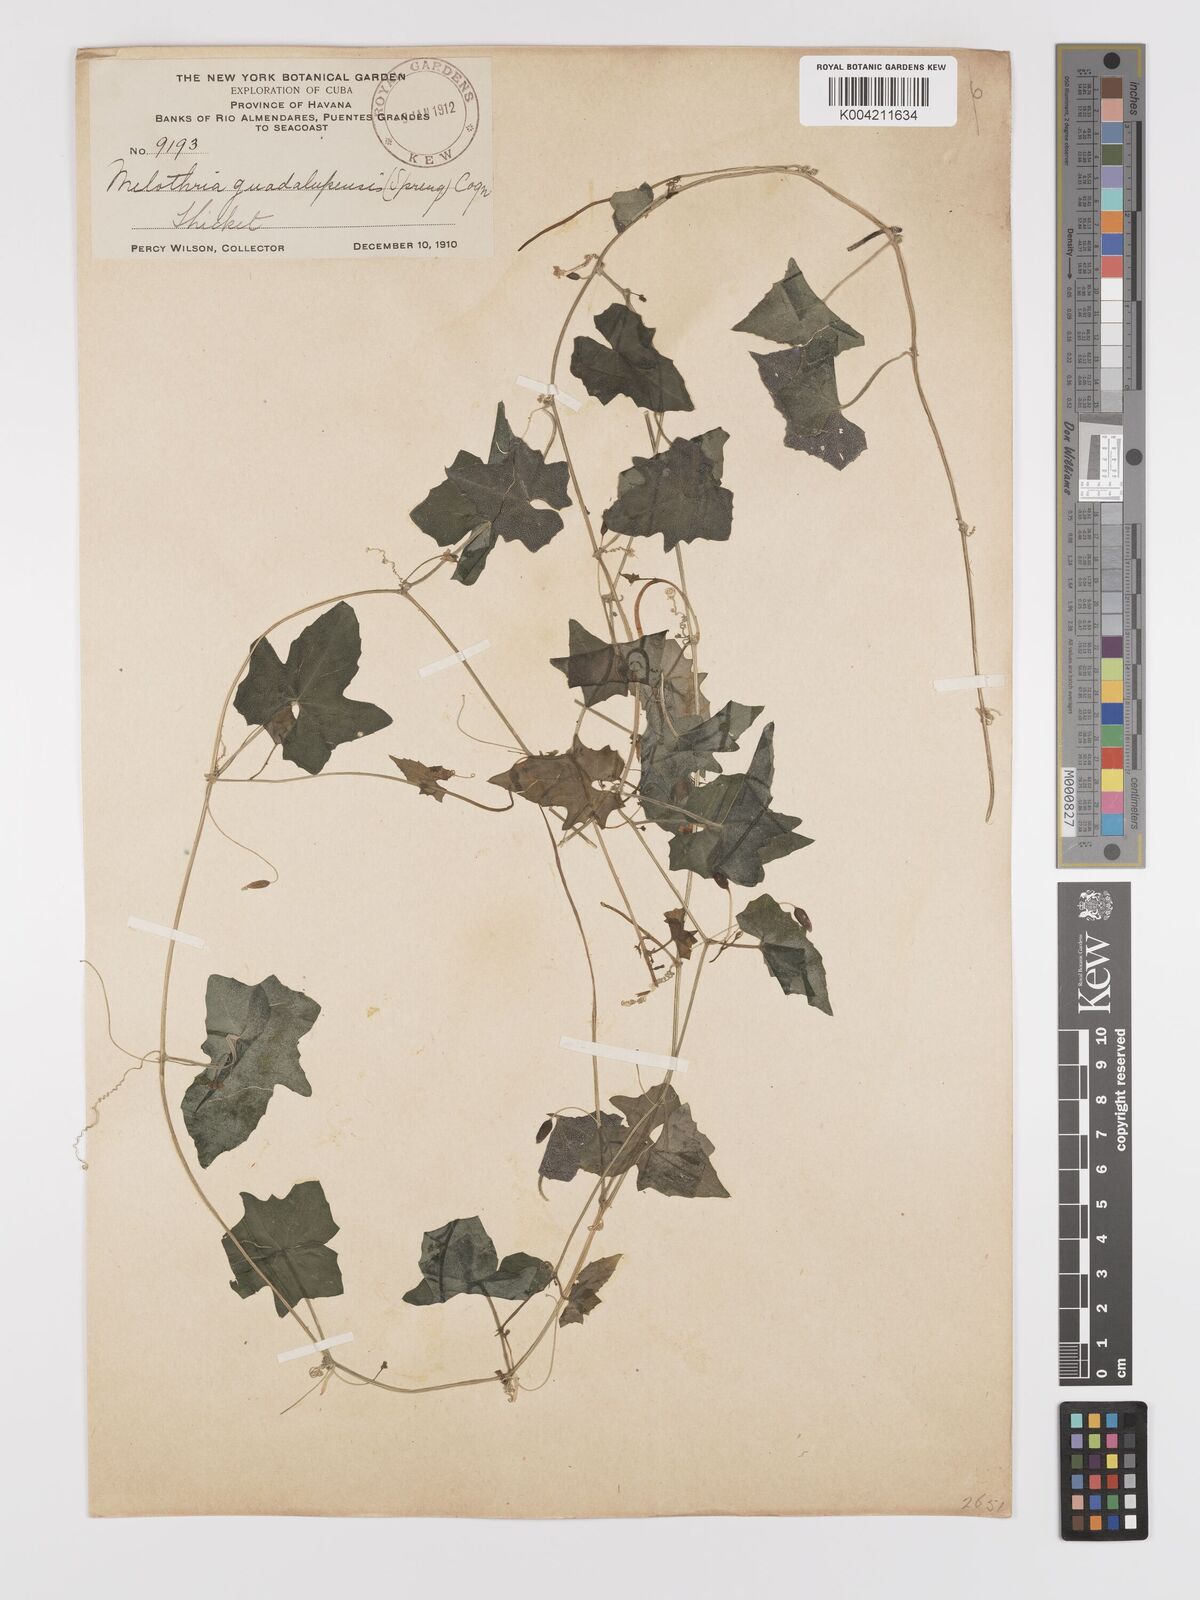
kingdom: Plantae
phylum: Tracheophyta
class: Magnoliopsida
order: Cucurbitales
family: Cucurbitaceae
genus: Melothria
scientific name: Melothria
